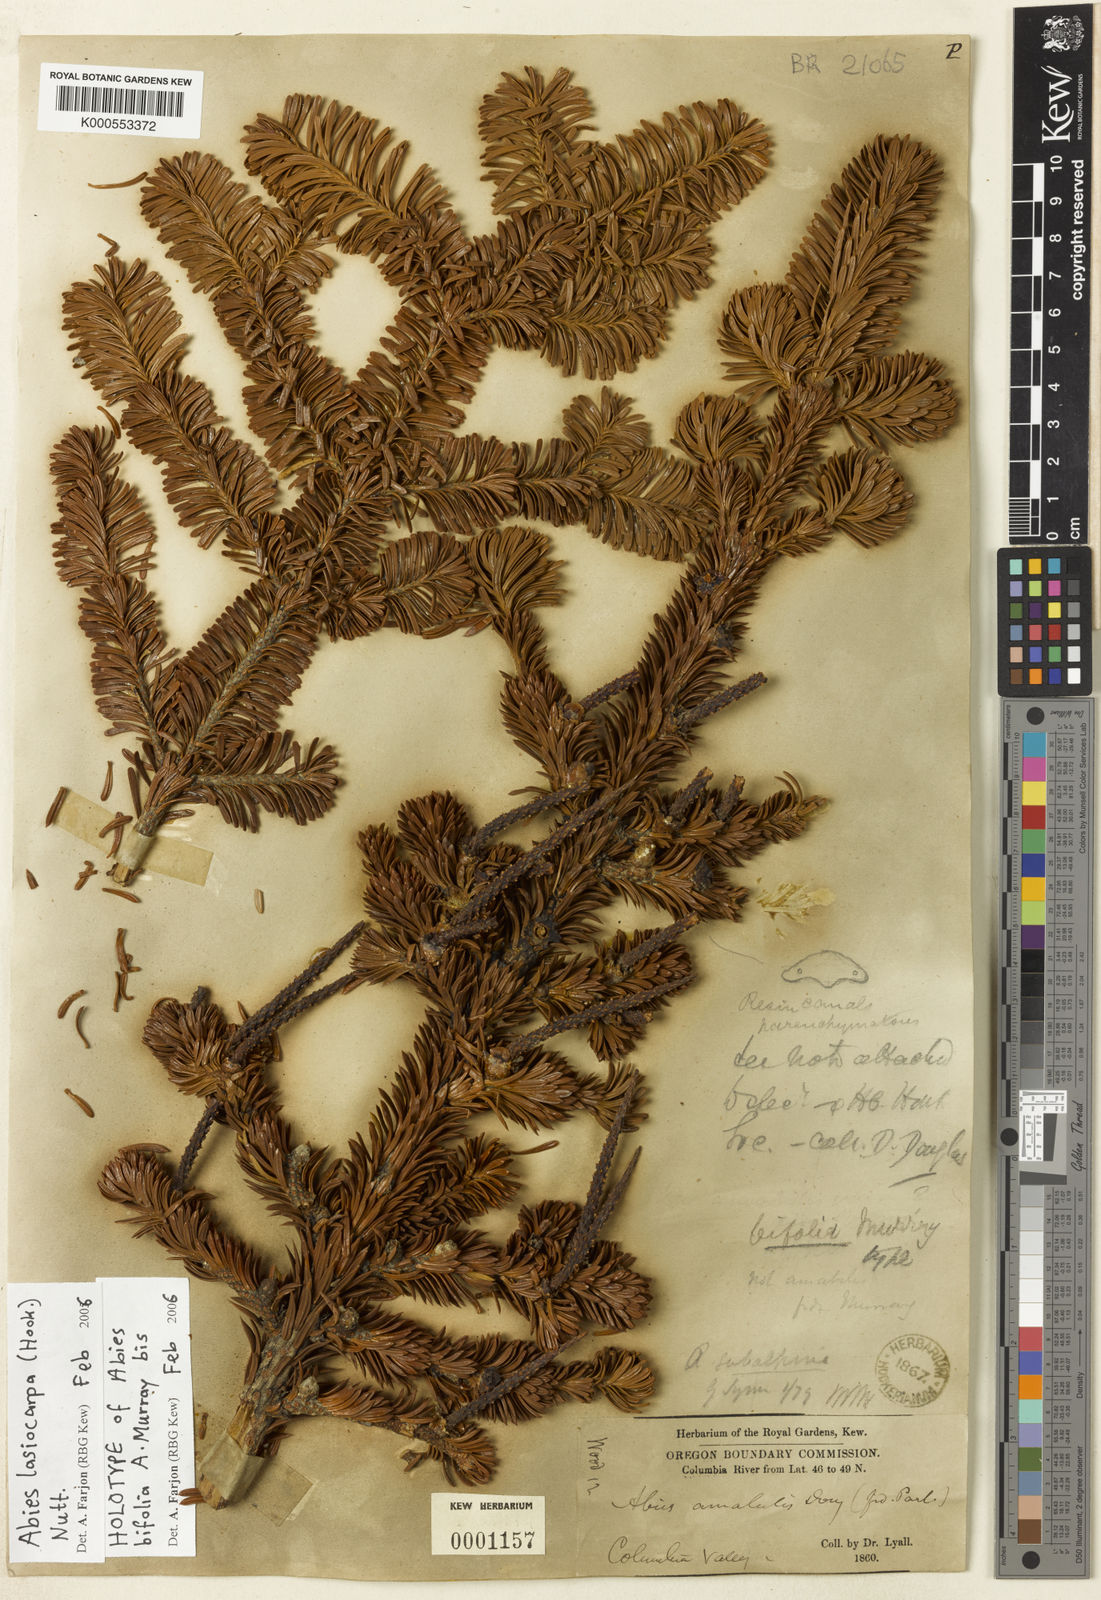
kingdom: Plantae
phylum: Tracheophyta
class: Pinopsida
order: Pinales
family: Pinaceae
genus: Abies
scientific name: Abies lasiocarpa
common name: Subalpine fir
